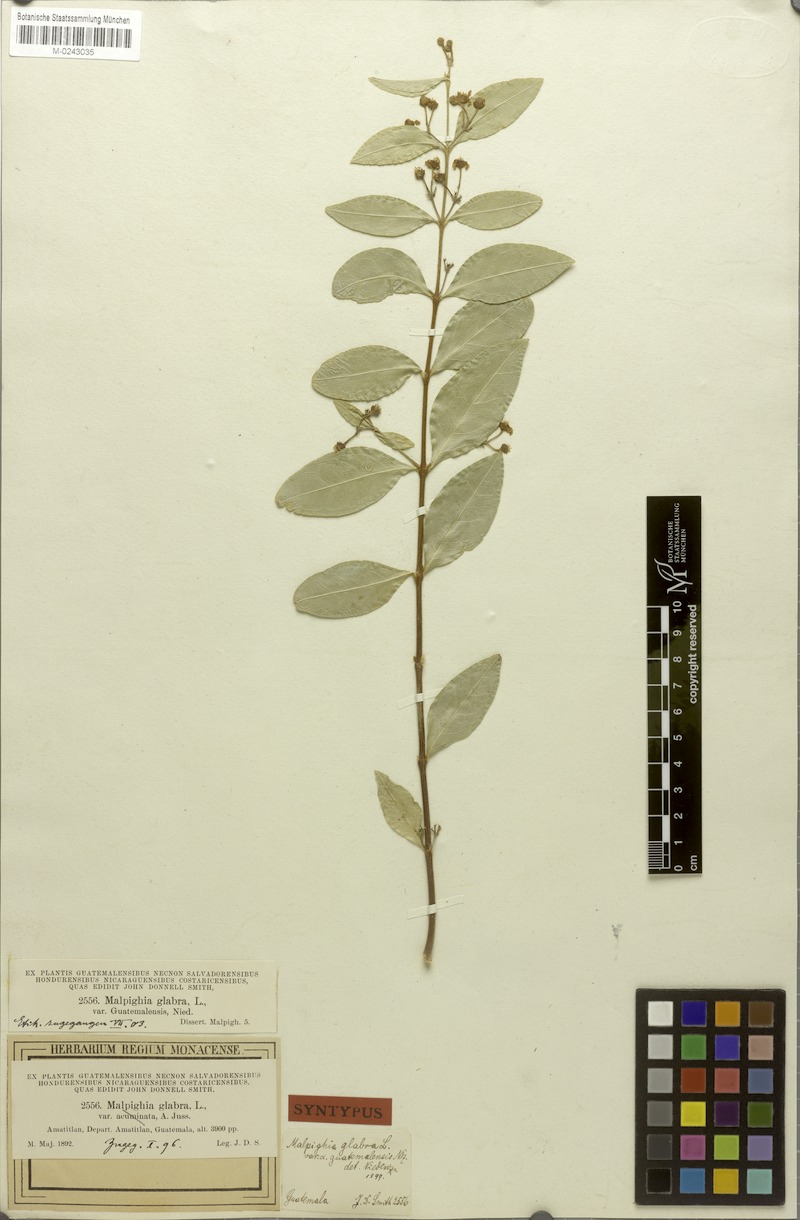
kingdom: Plantae
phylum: Tracheophyta
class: Magnoliopsida
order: Malpighiales
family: Malpighiaceae
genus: Malpighia
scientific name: Malpighia glabra
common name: Barbados cherry
